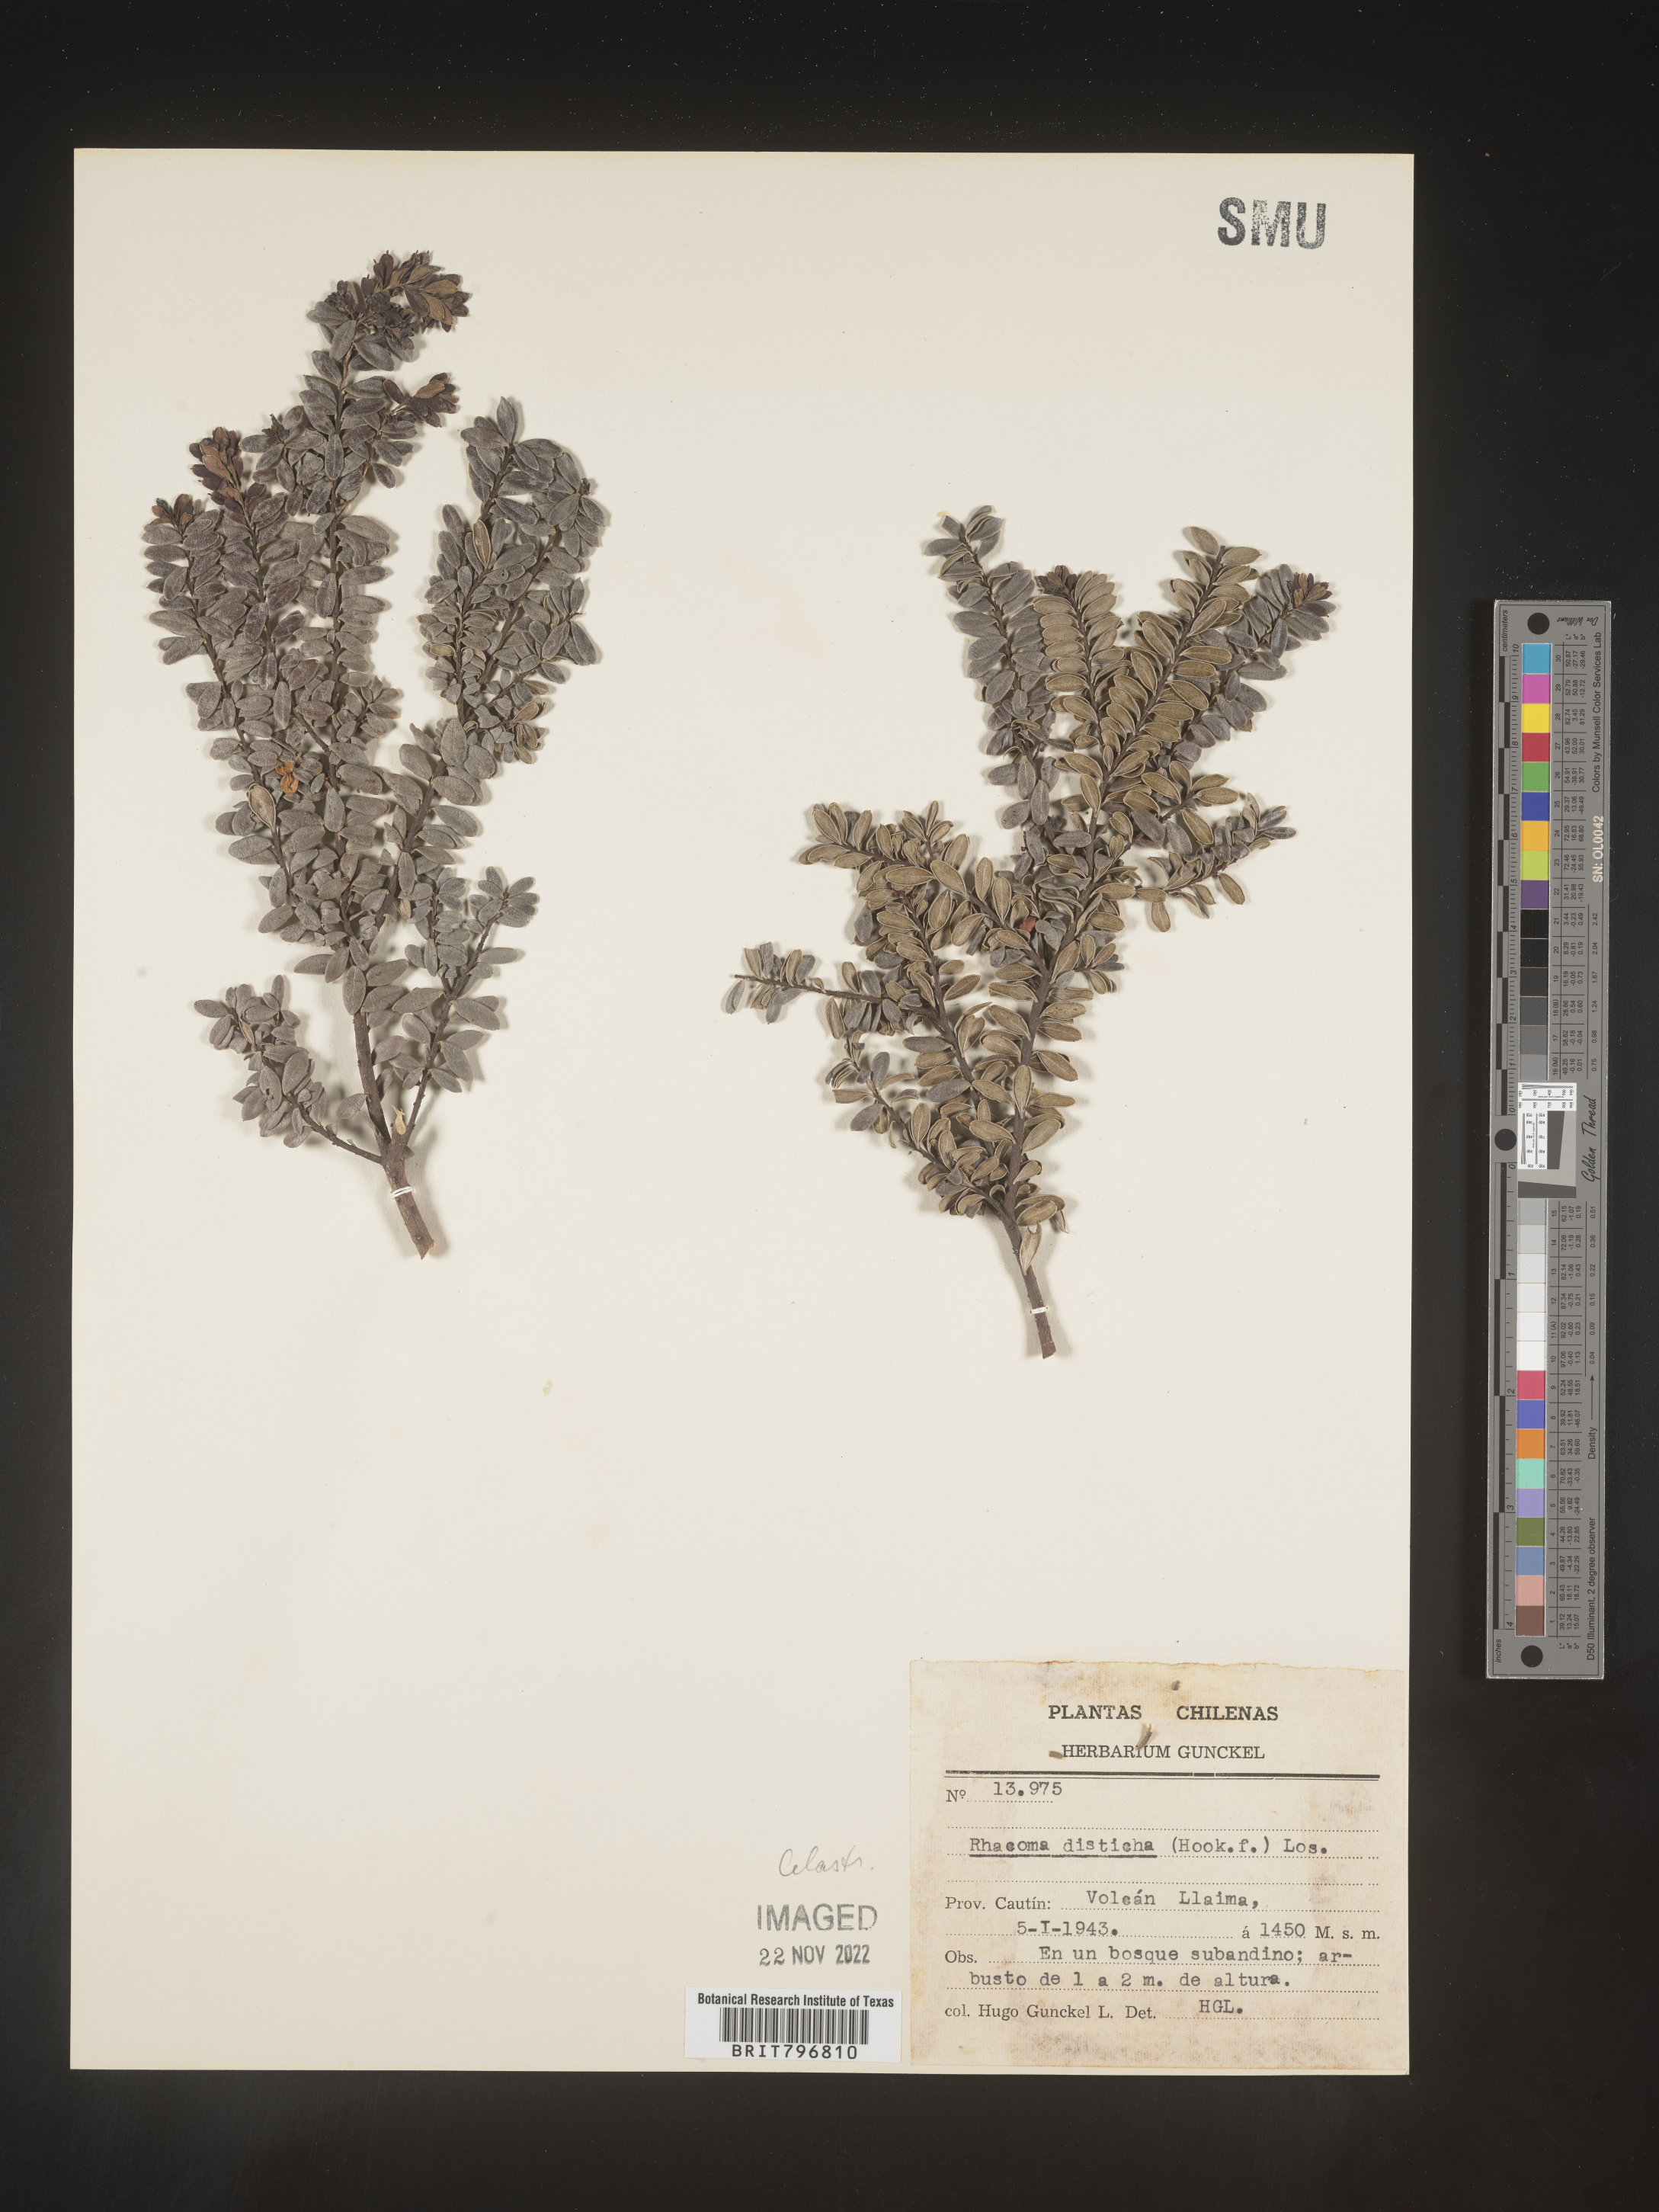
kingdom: Plantae
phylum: Tracheophyta
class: Magnoliopsida
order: Celastrales
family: Celastraceae
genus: Crossopetalum
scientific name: Crossopetalum
